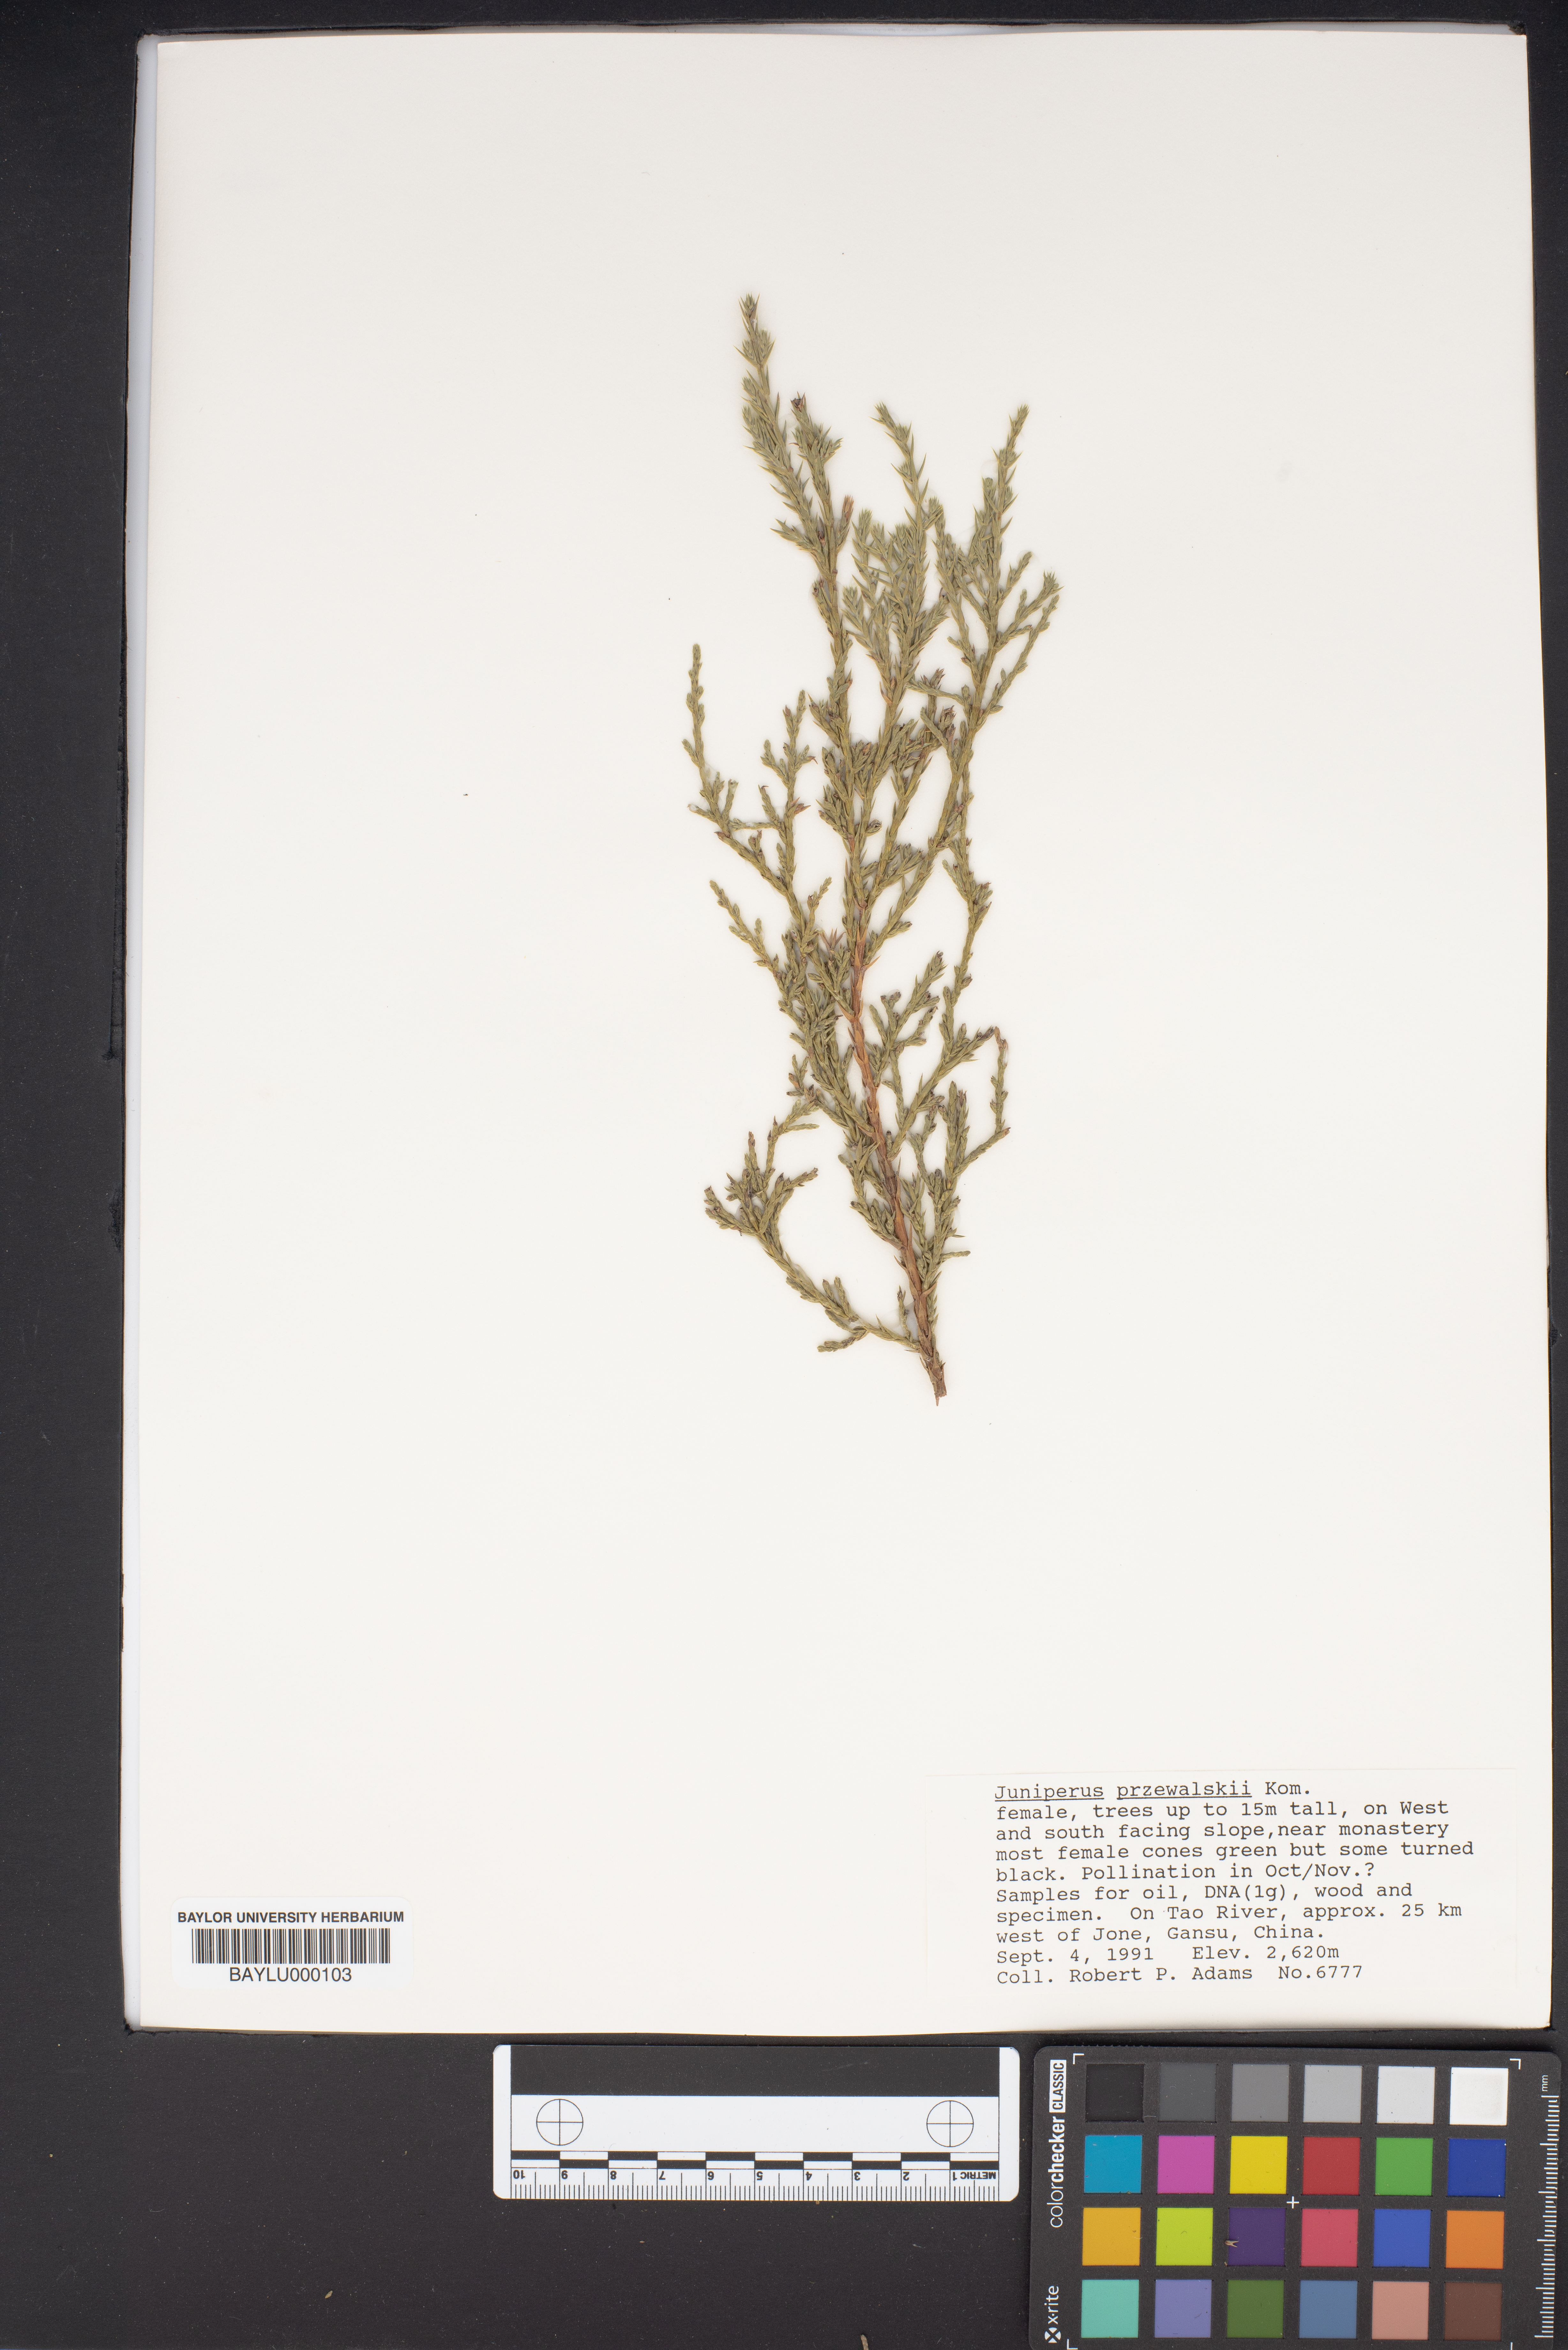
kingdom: Plantae
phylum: Tracheophyta
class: Pinopsida
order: Pinales
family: Cupressaceae
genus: Juniperus
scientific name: Juniperus przewalskii
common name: Przewalsi juniper
